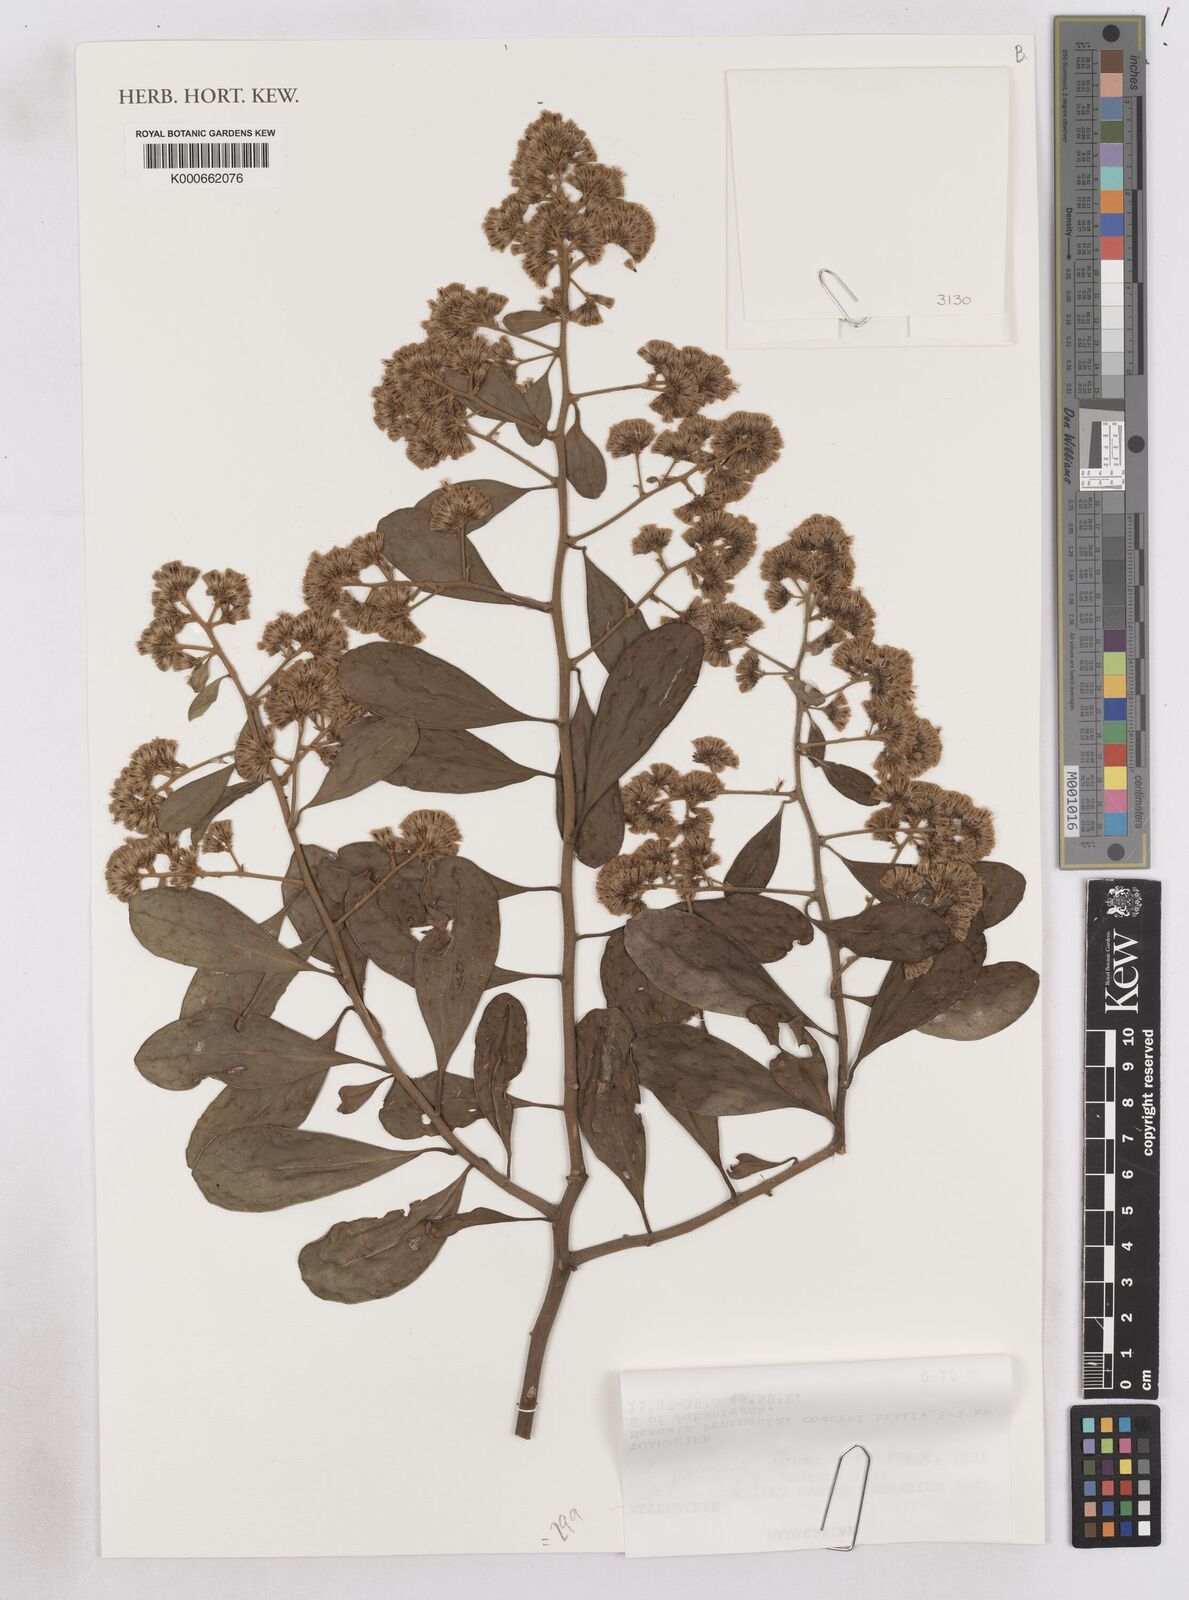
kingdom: Plantae
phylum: Tracheophyta
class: Magnoliopsida
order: Asterales
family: Asteraceae
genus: Distephanus
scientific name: Distephanus lastellei
